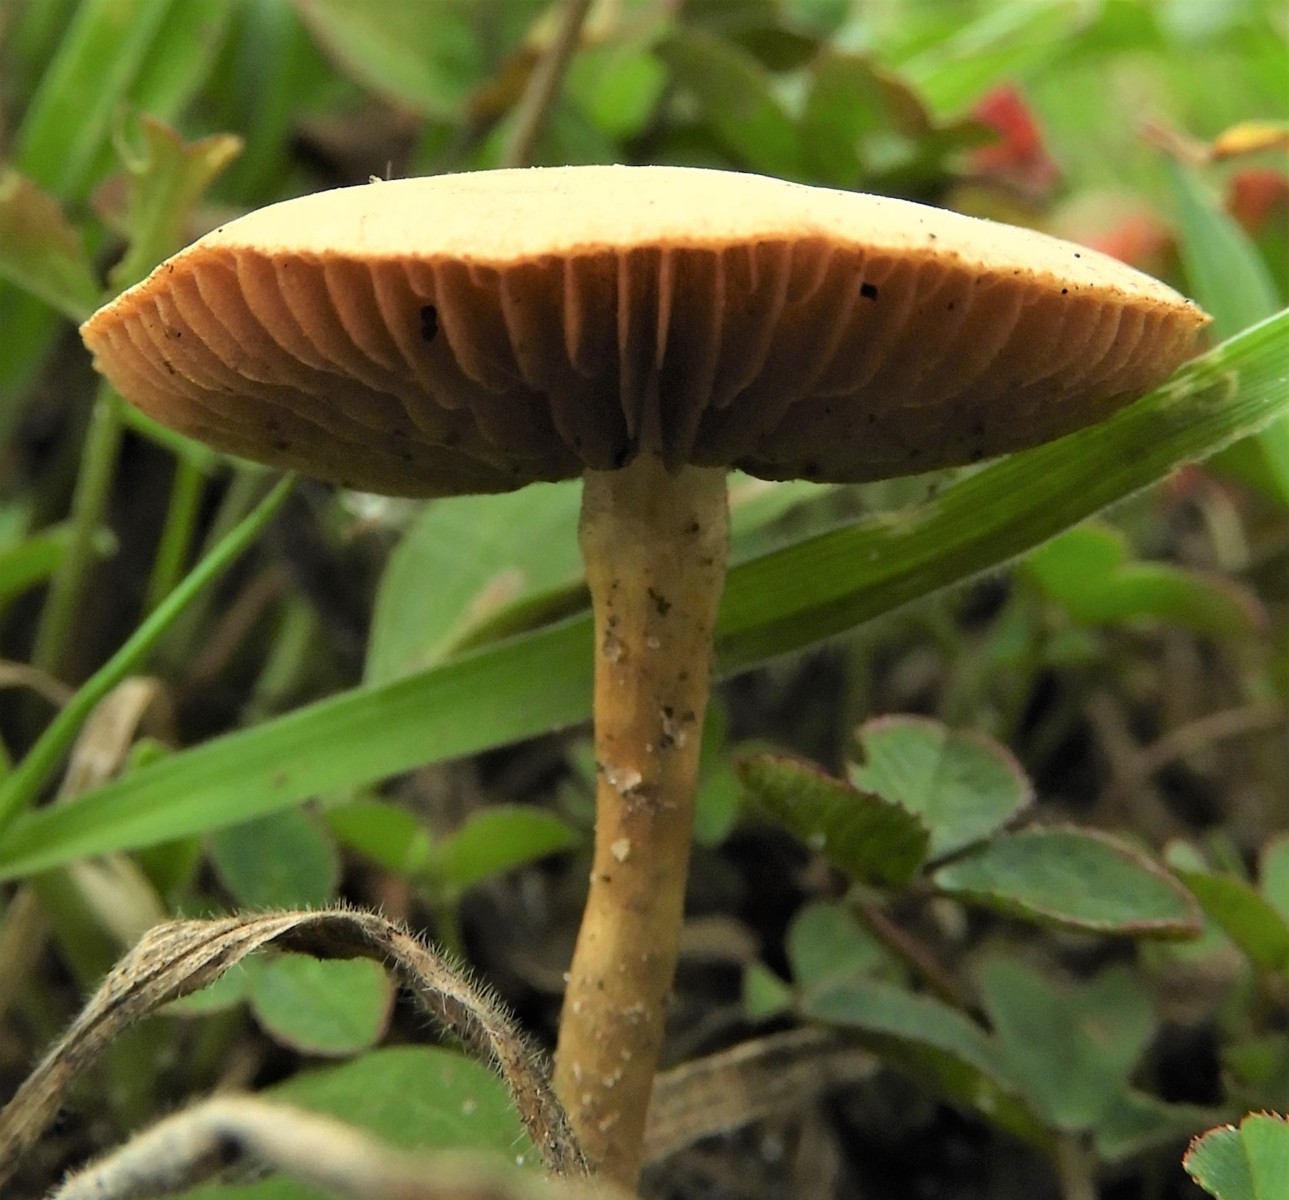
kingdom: Fungi
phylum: Basidiomycota
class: Agaricomycetes
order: Agaricales
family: Strophariaceae
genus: Agrocybe
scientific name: Agrocybe pediades
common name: almindelig agerhat
